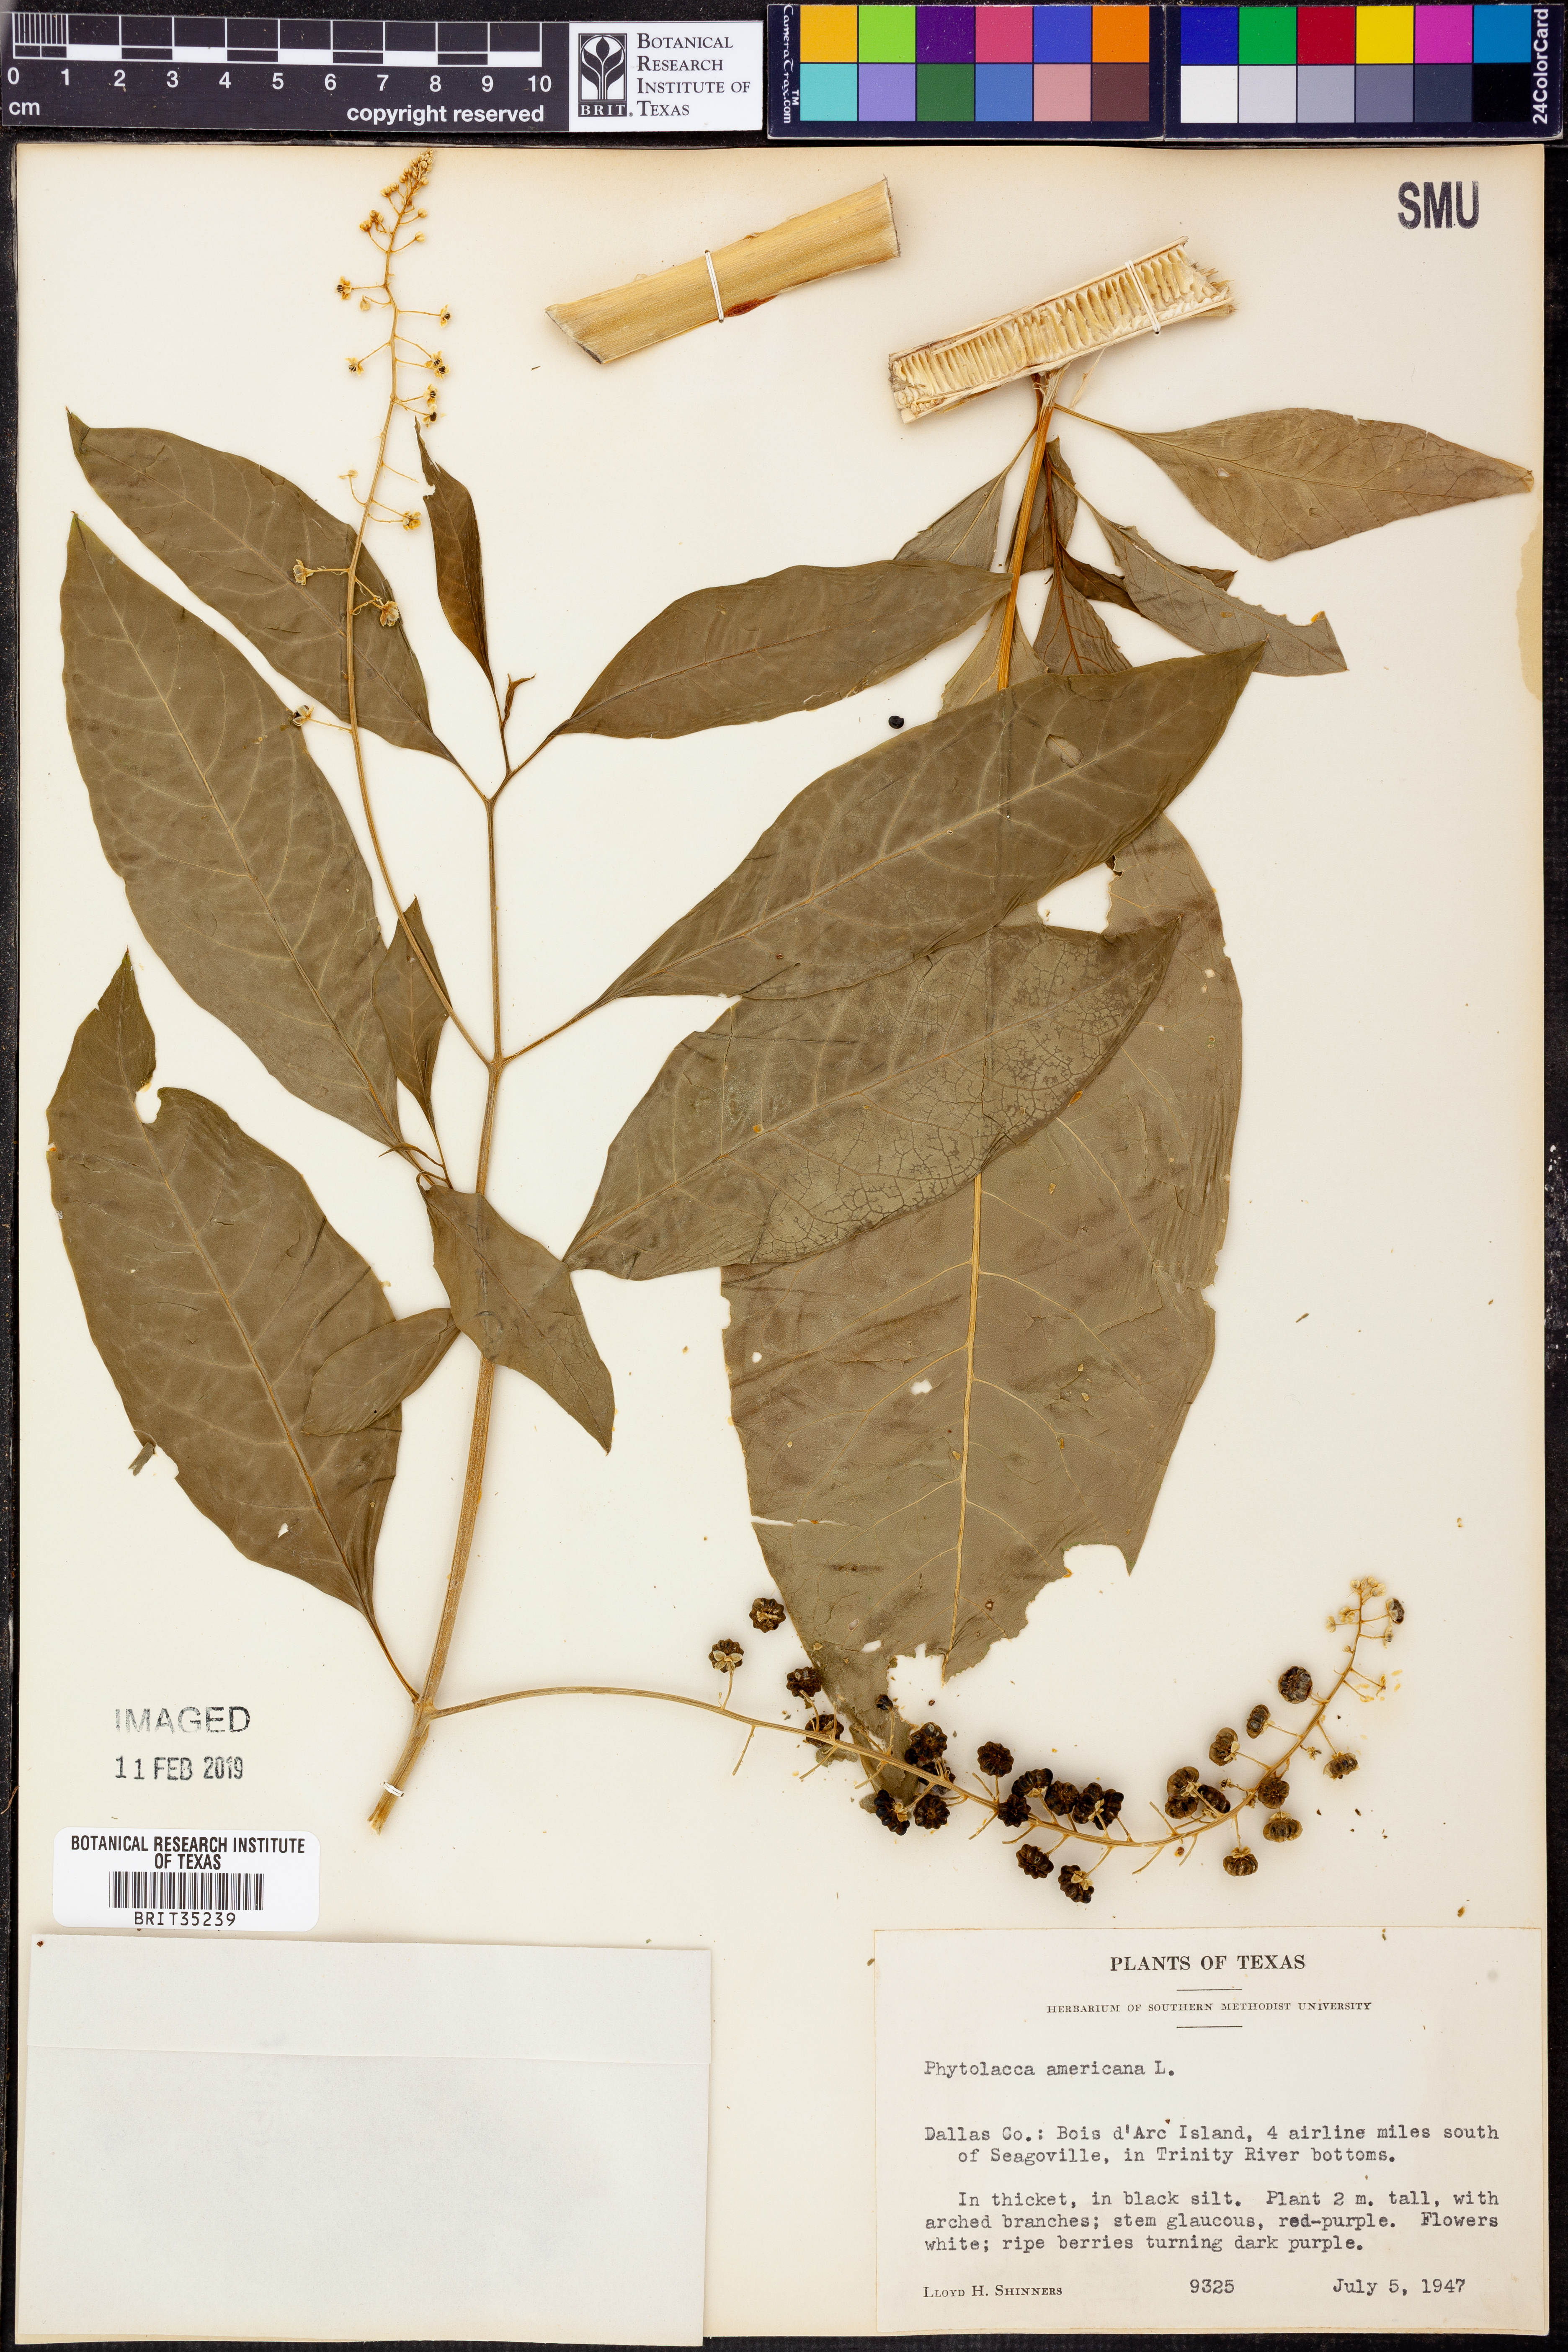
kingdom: Plantae
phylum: Tracheophyta
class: Magnoliopsida
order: Caryophyllales
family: Phytolaccaceae
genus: Phytolacca
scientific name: Phytolacca americana
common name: American pokeweed
